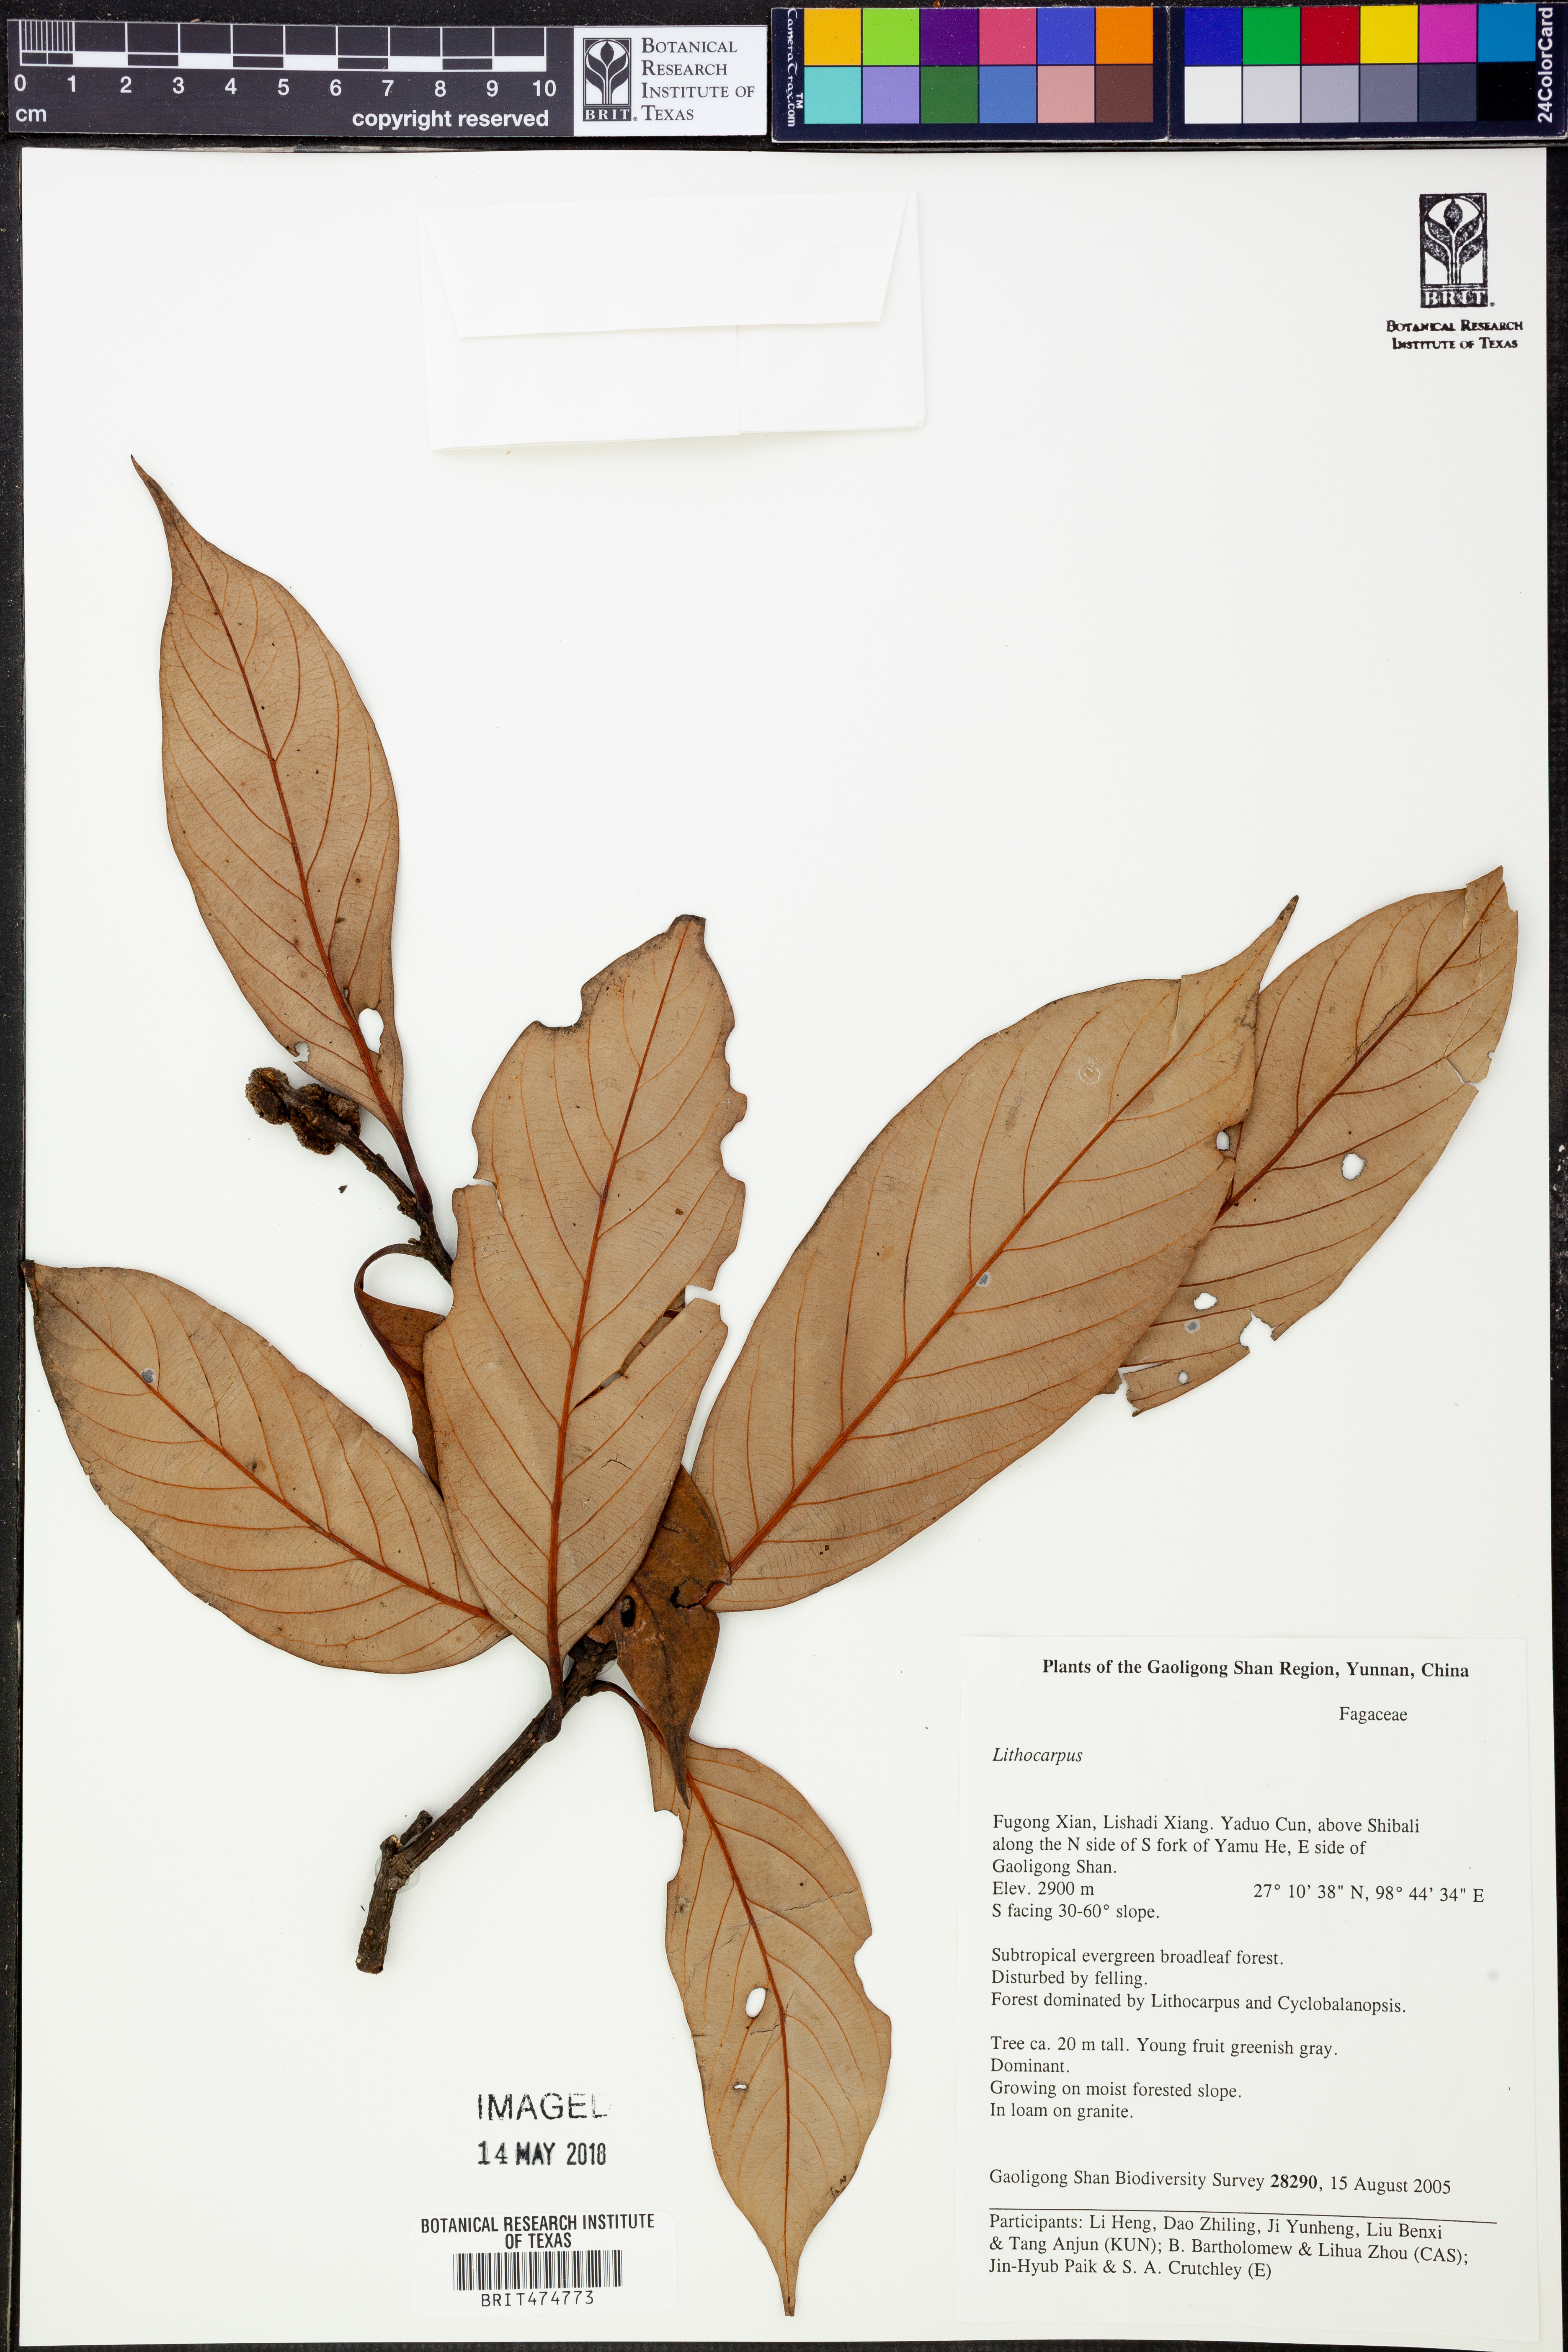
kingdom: Plantae
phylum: Tracheophyta
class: Magnoliopsida
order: Fagales
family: Fagaceae
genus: Lithocarpus
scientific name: Lithocarpus
